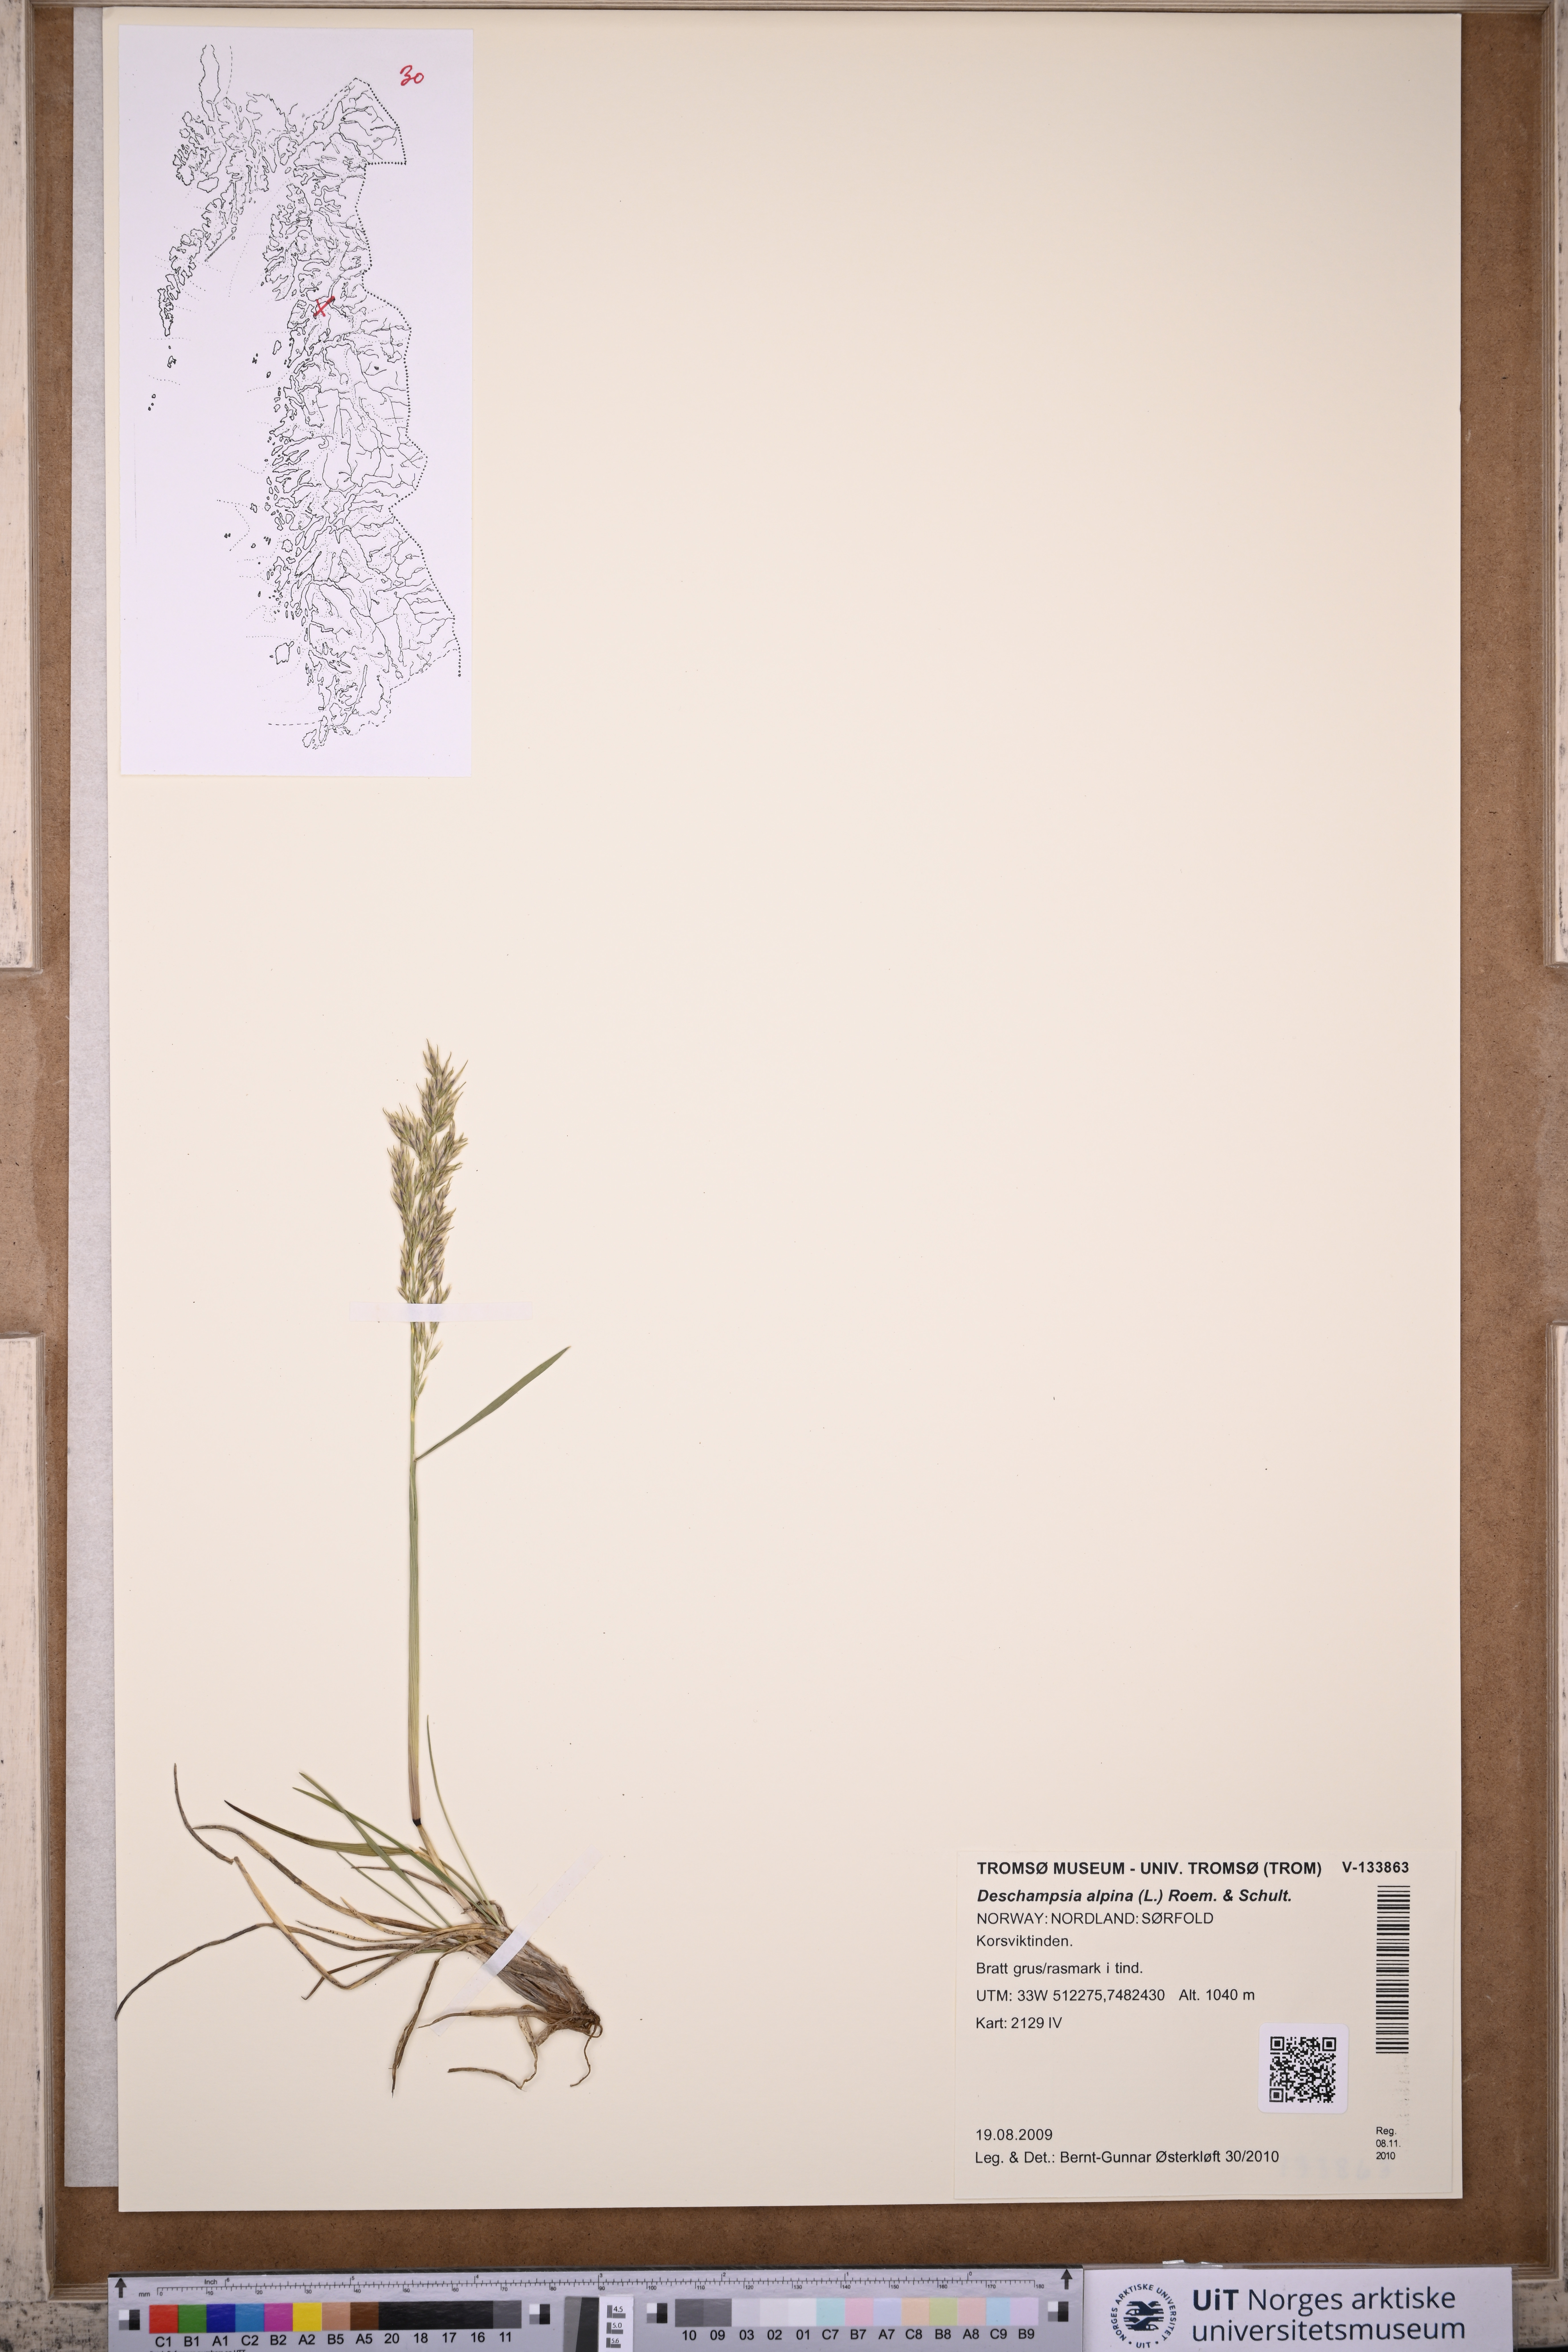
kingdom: Plantae
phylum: Tracheophyta
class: Liliopsida
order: Poales
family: Poaceae
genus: Deschampsia
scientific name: Deschampsia cespitosa
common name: Tufted hair-grass
